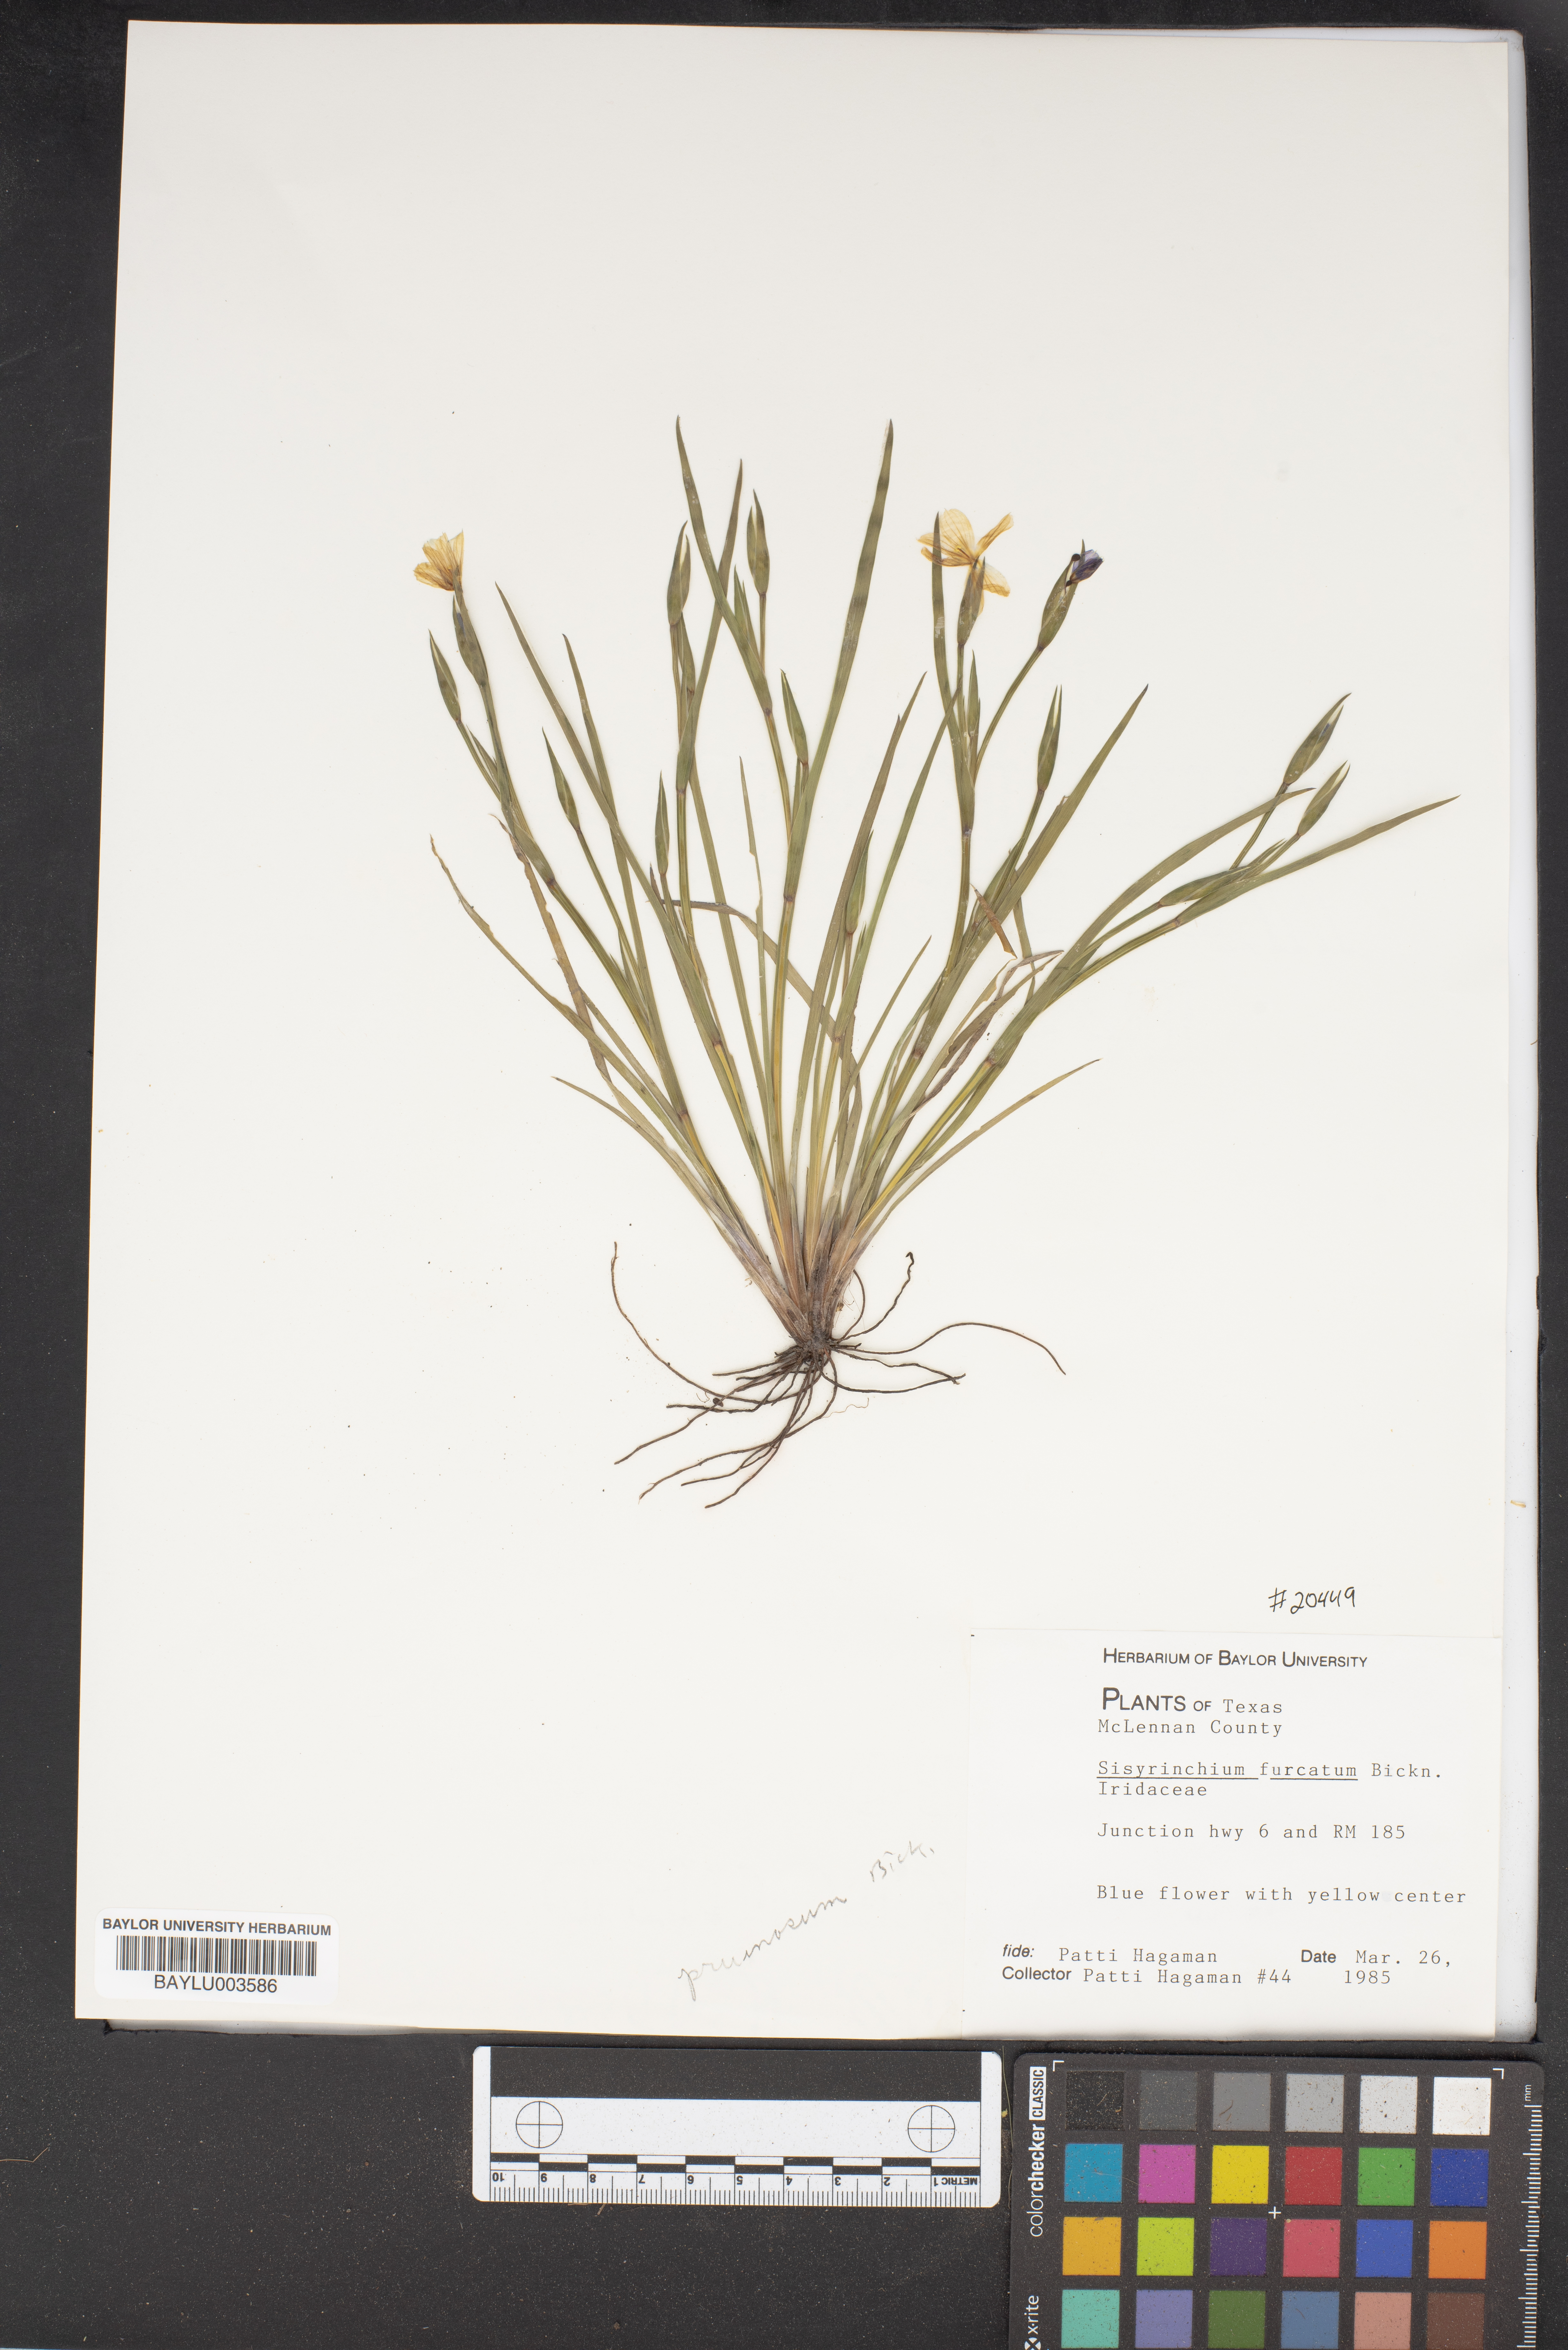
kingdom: Plantae
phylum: Tracheophyta
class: Liliopsida
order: Asparagales
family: Iridaceae
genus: Sisyrinchium
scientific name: Sisyrinchium langloisii
